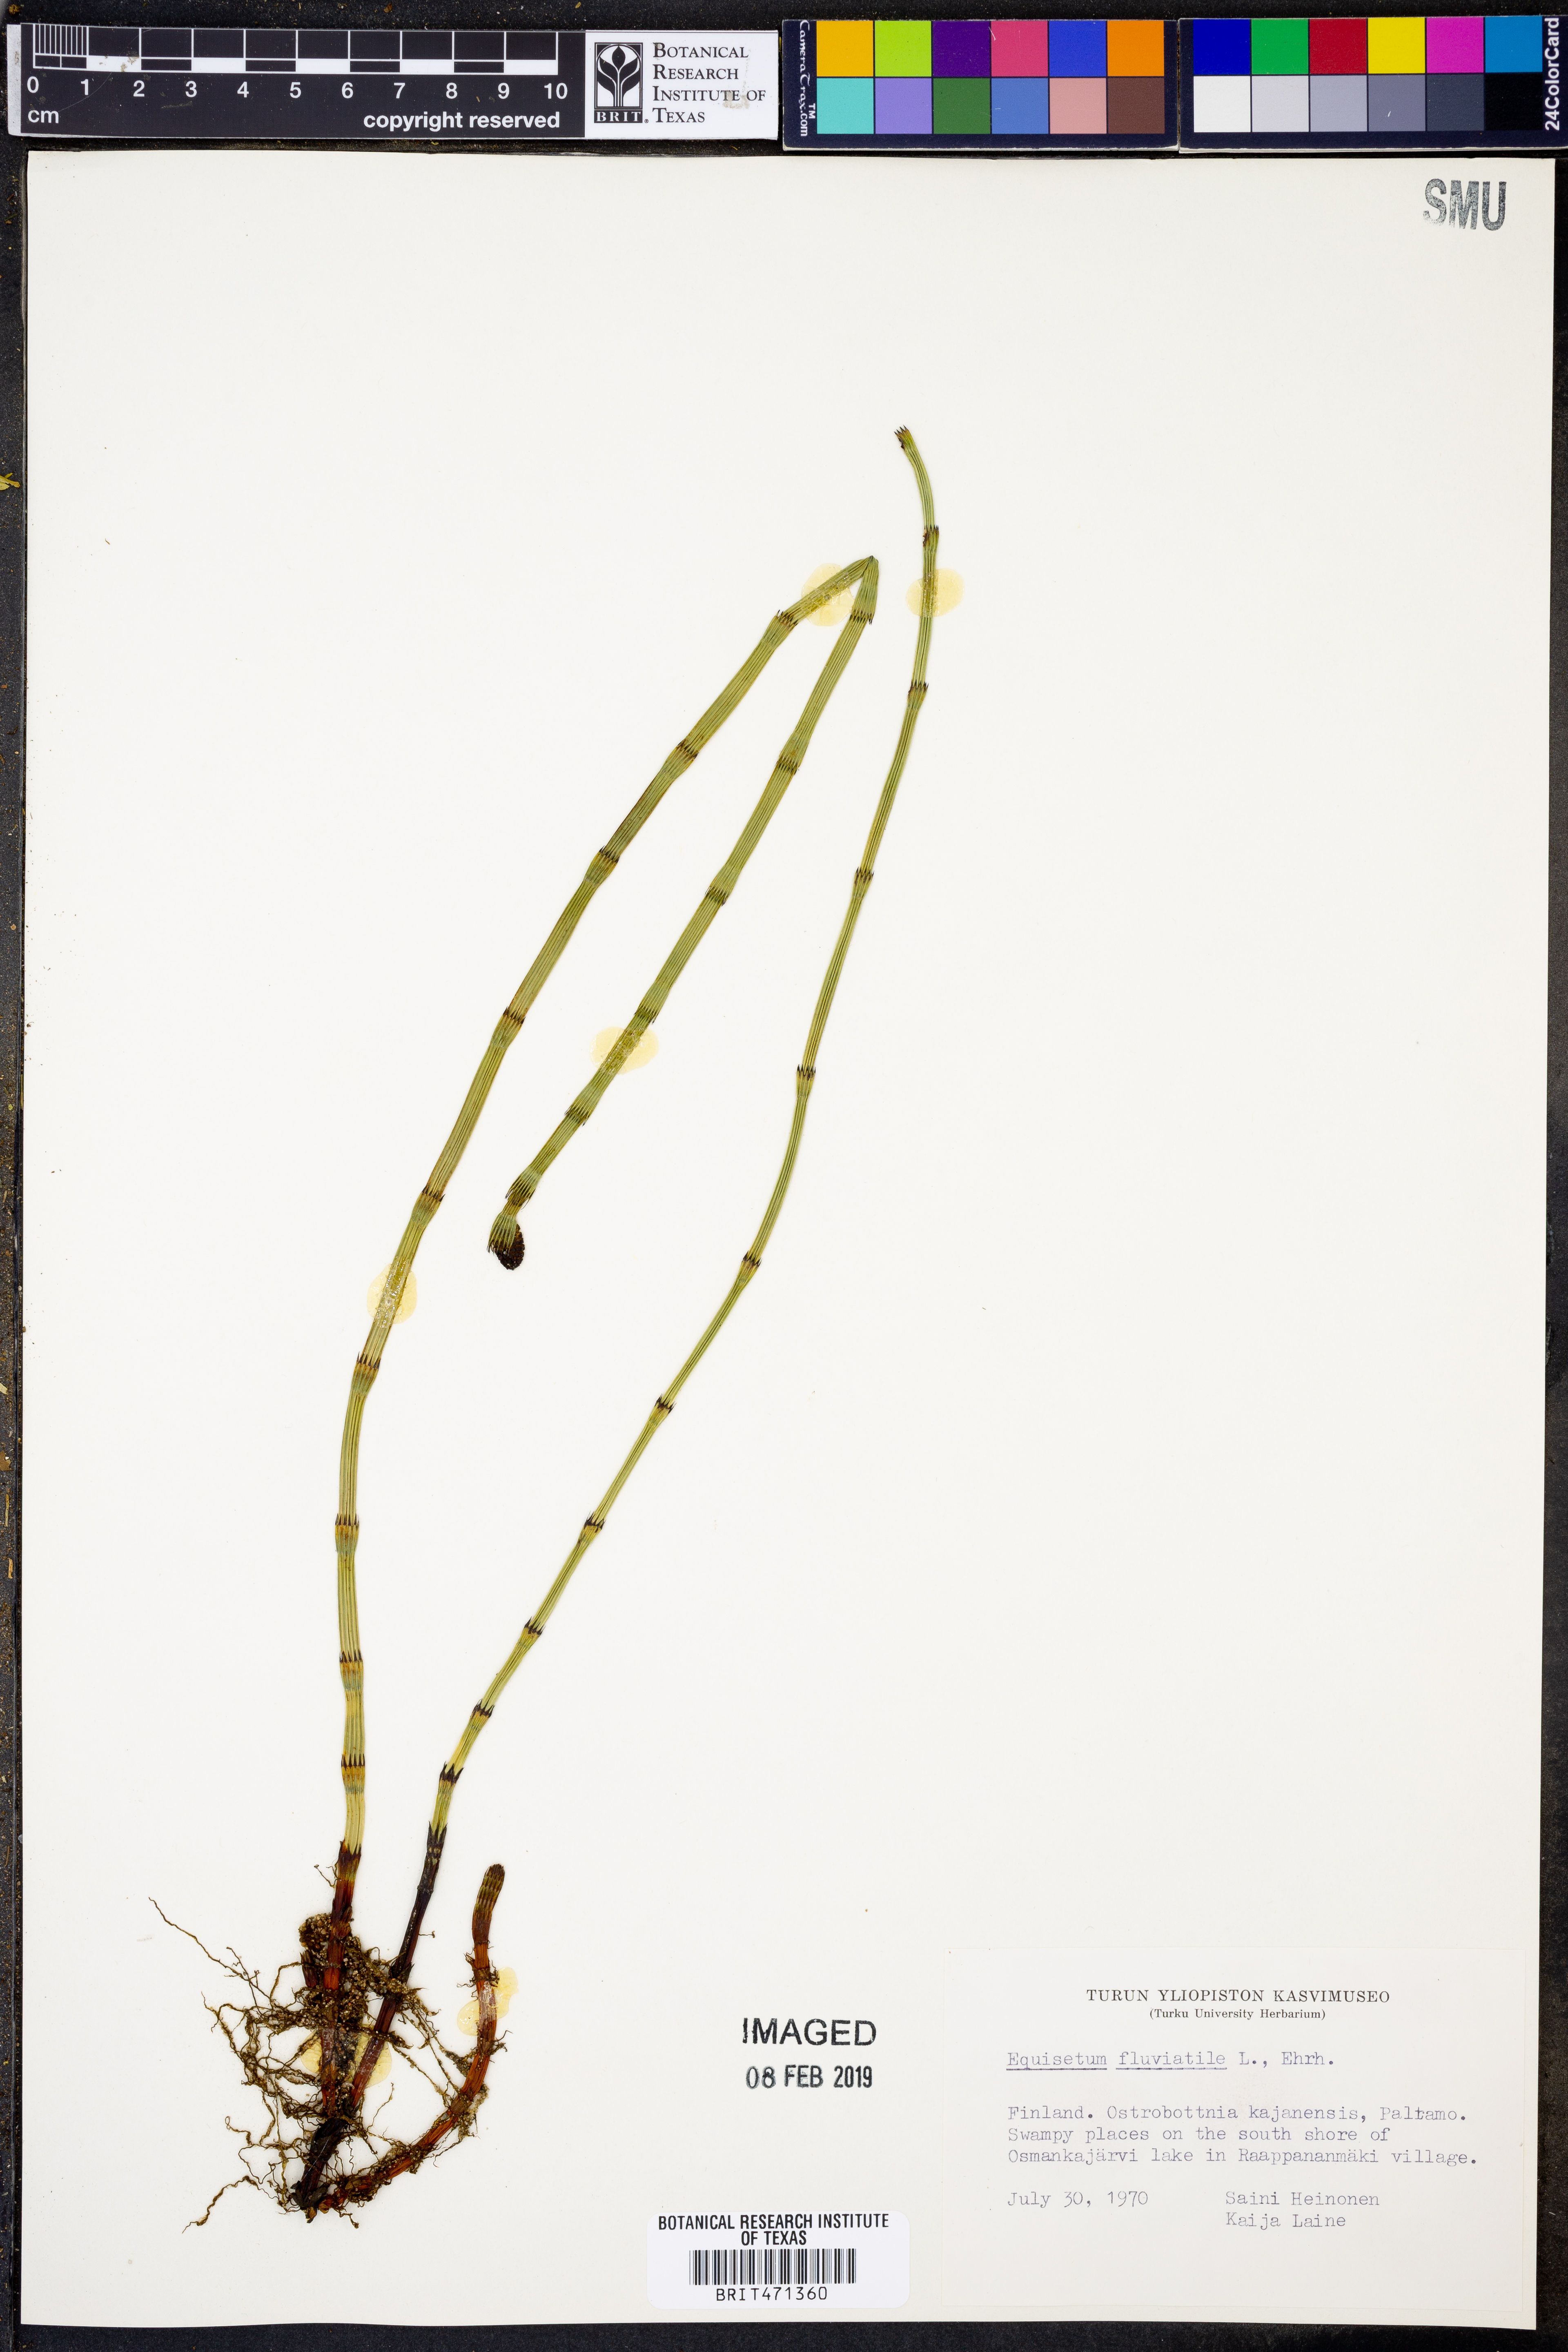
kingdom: Plantae
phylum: Tracheophyta
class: Polypodiopsida
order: Equisetales
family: Equisetaceae
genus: Equisetum
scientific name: Equisetum fluviatile
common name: Water horsetail
